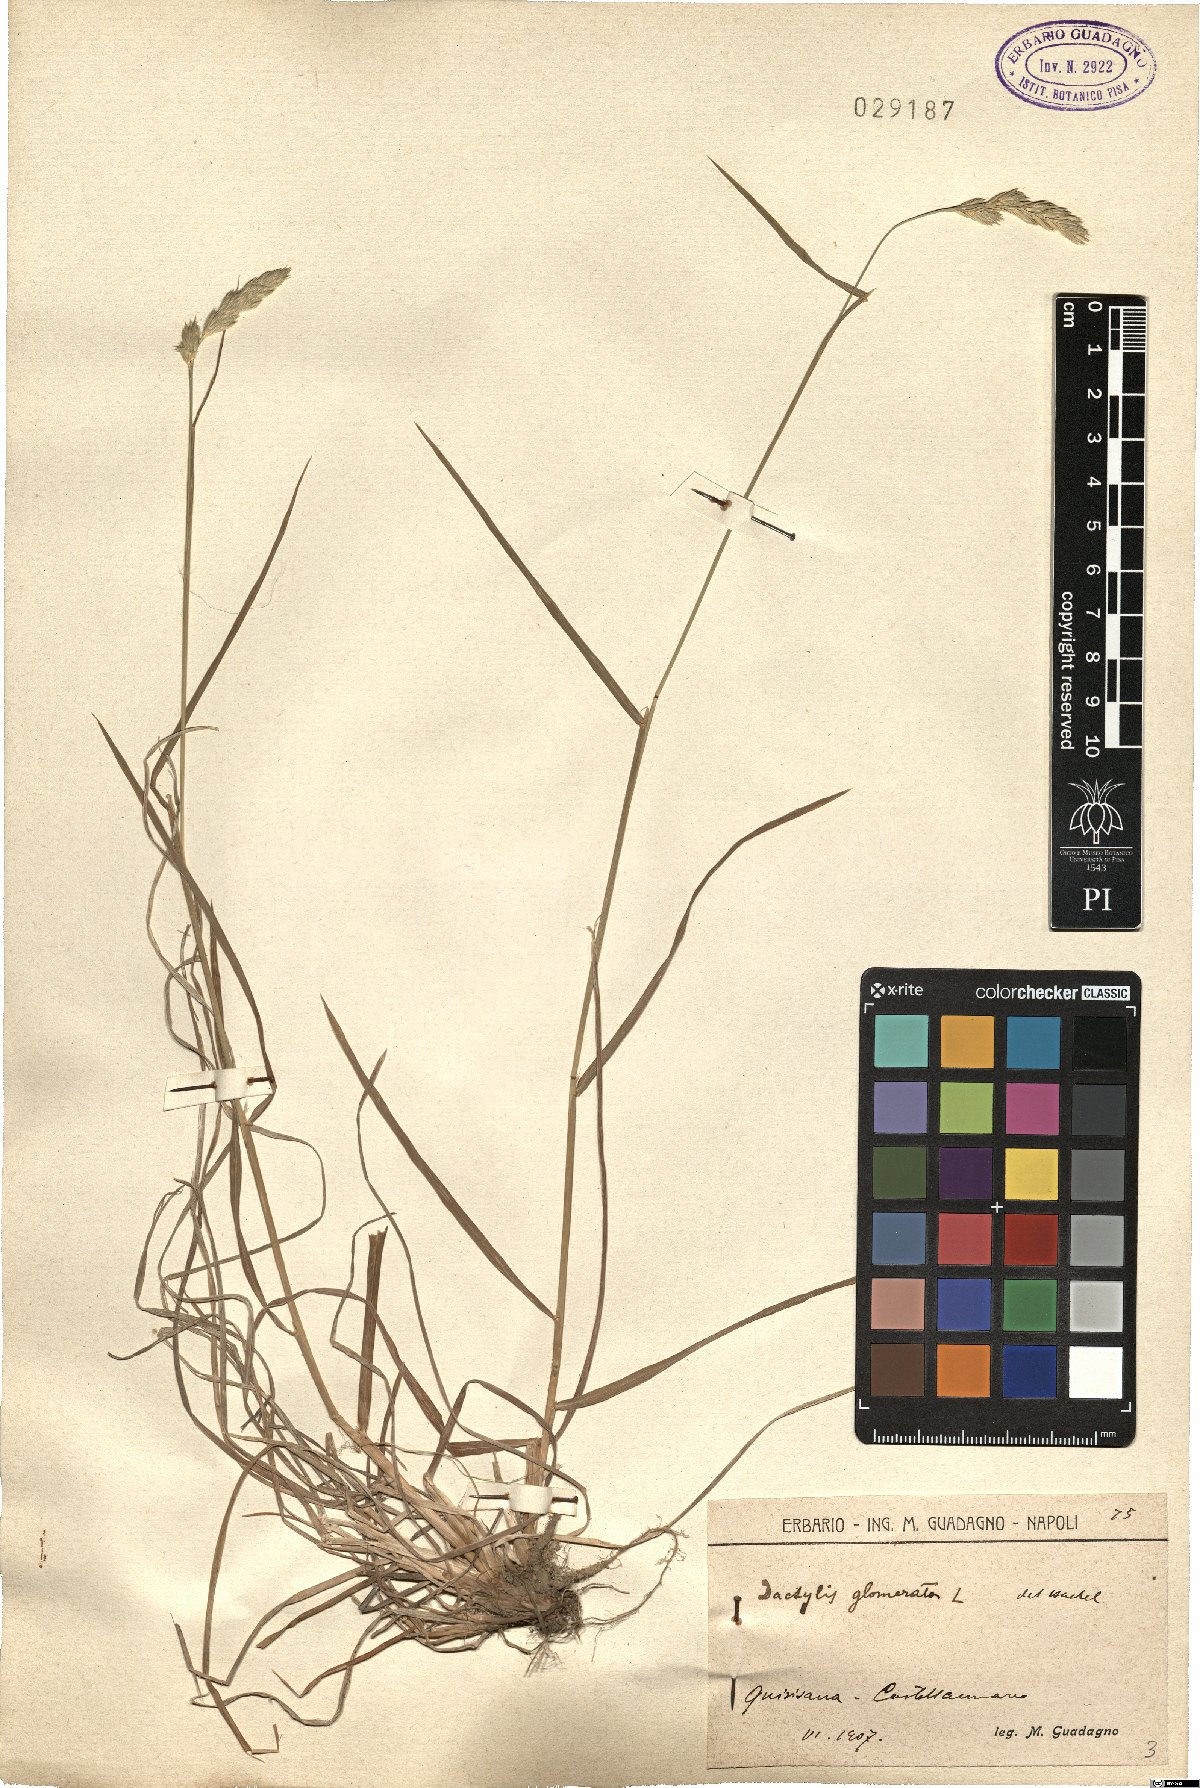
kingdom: Plantae
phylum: Tracheophyta
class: Liliopsida
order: Poales
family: Poaceae
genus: Dactylis
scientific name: Dactylis glomerata
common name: Orchardgrass
